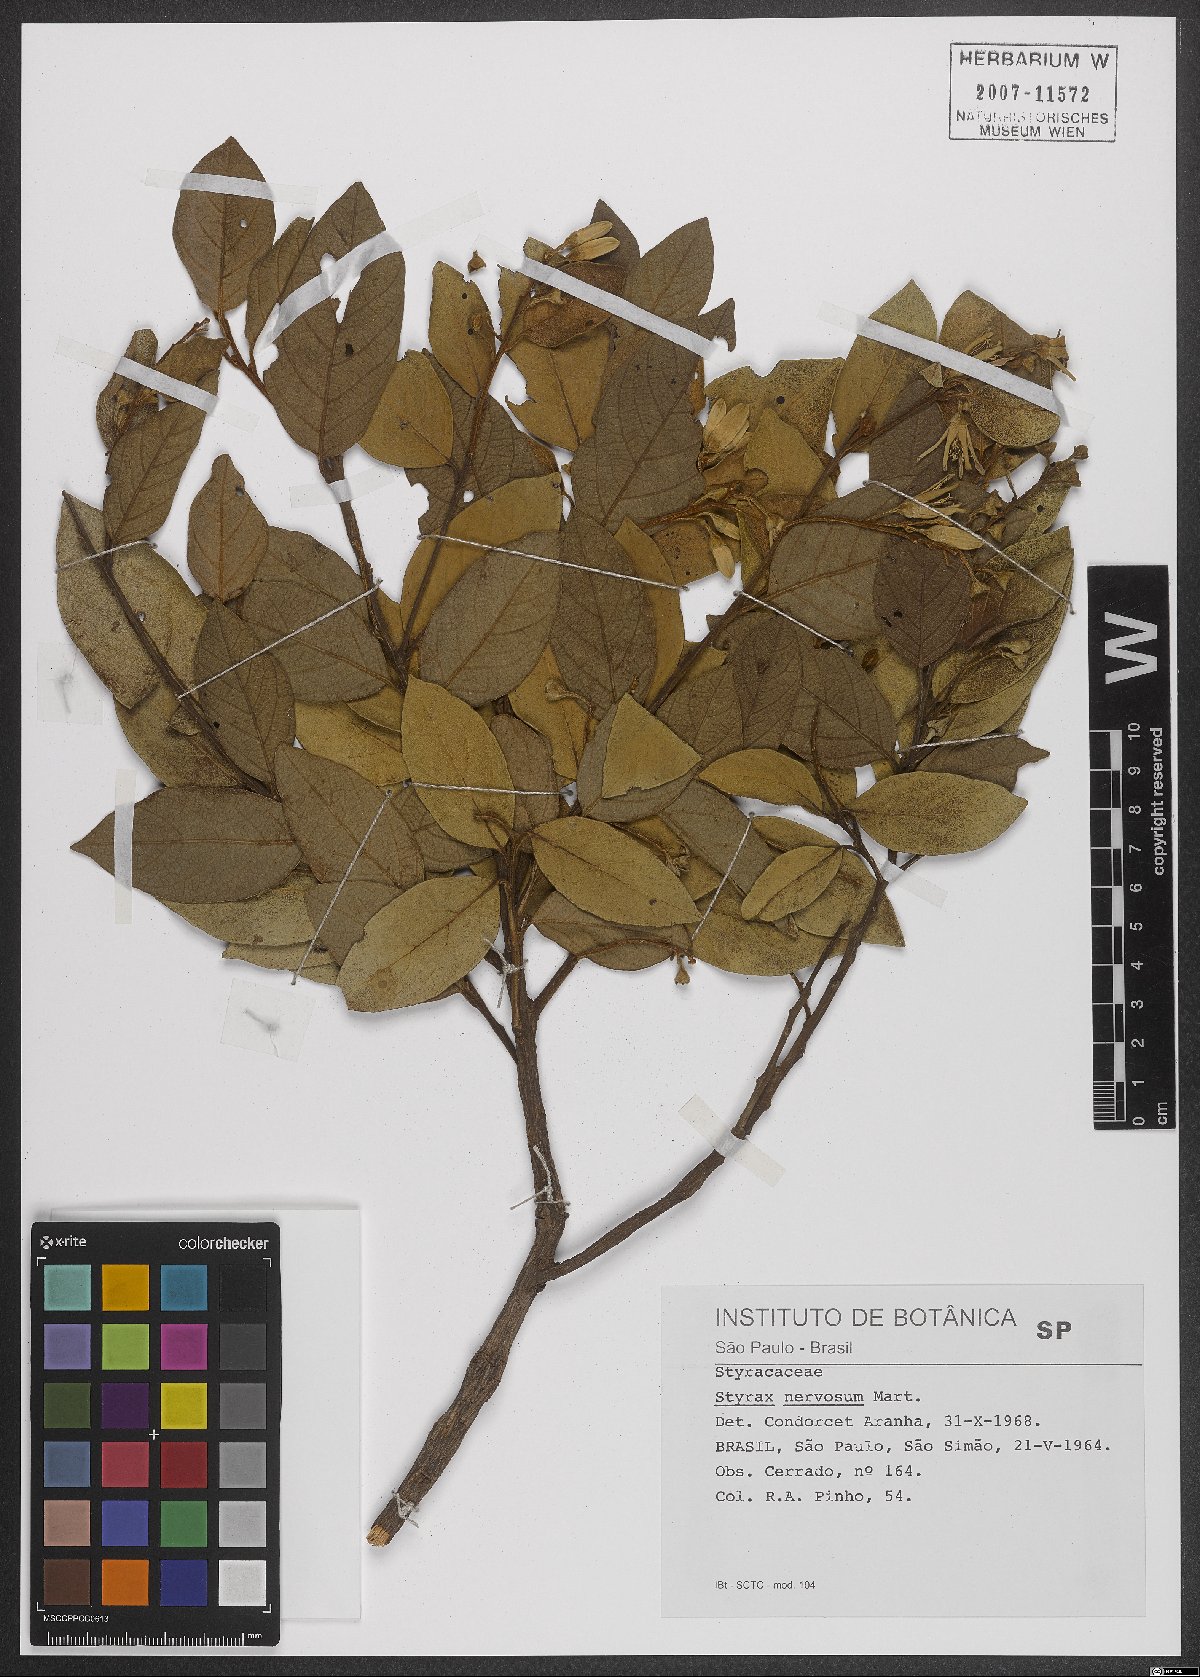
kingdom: Plantae
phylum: Tracheophyta
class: Magnoliopsida
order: Ericales
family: Styracaceae
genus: Styrax
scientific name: Styrax ferrugineus
